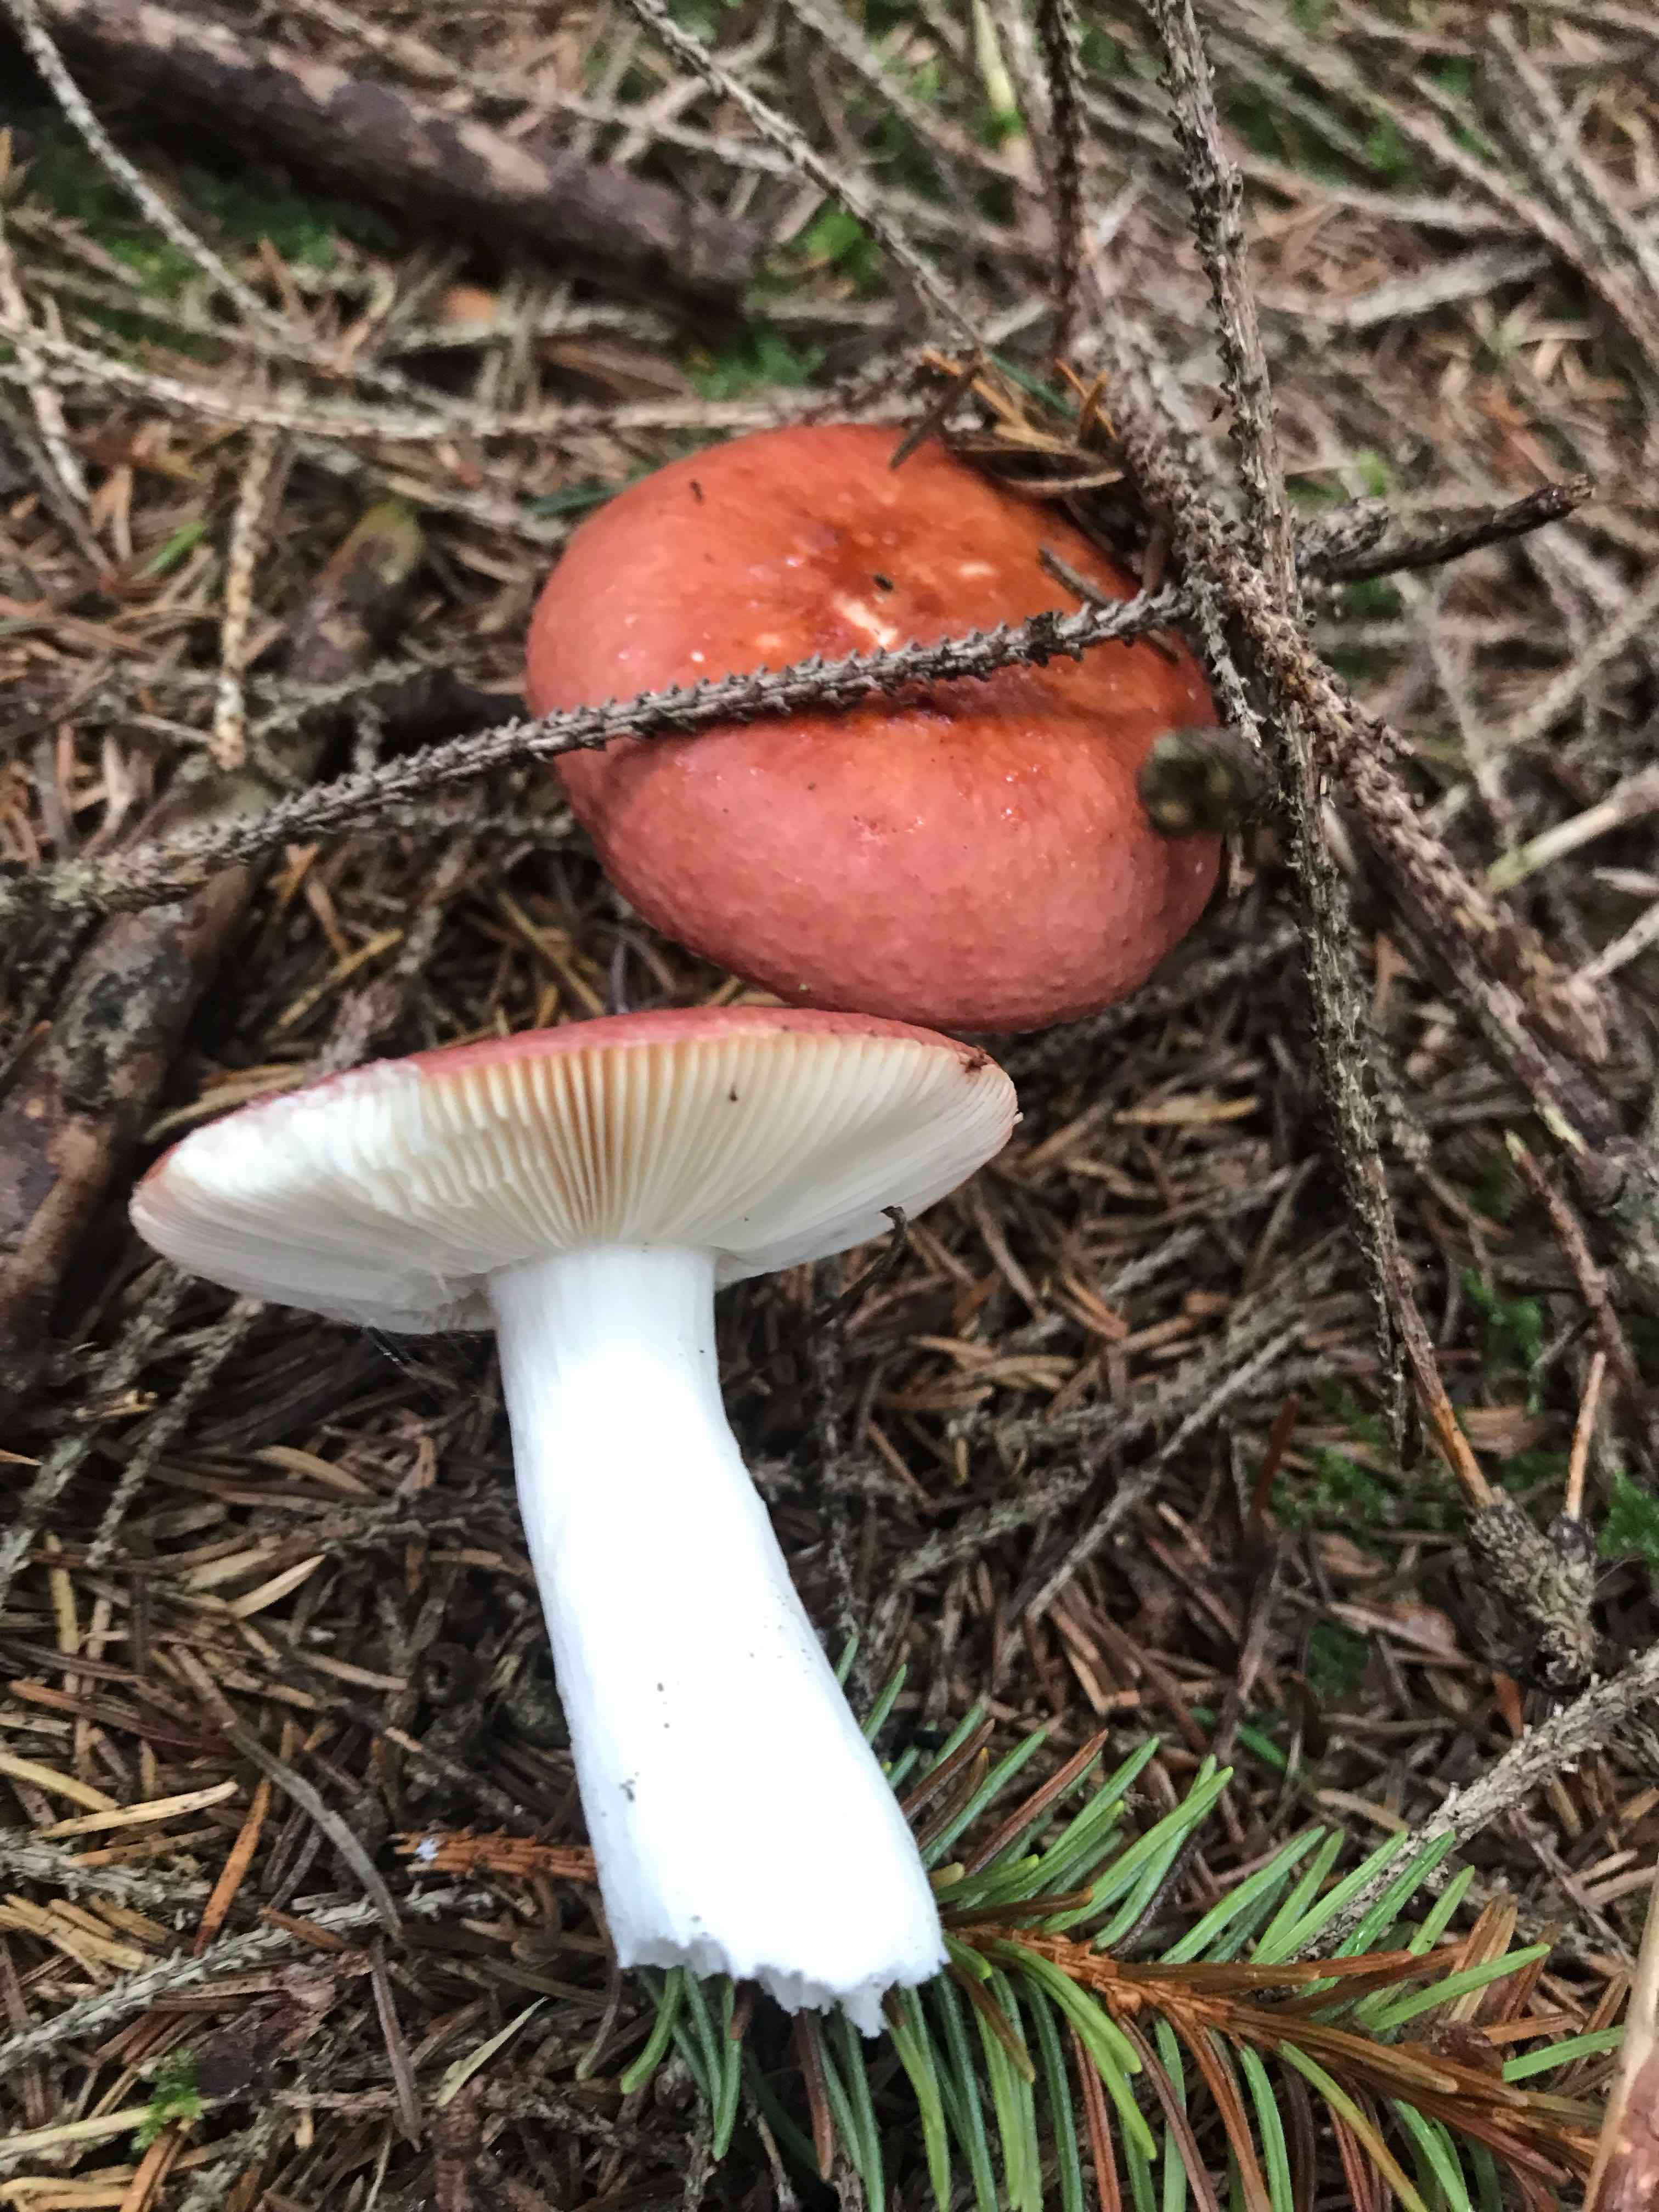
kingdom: Fungi
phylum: Basidiomycota
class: Agaricomycetes
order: Russulales
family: Russulaceae
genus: Russula
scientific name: Russula paludosa
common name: prægtig skørhat
